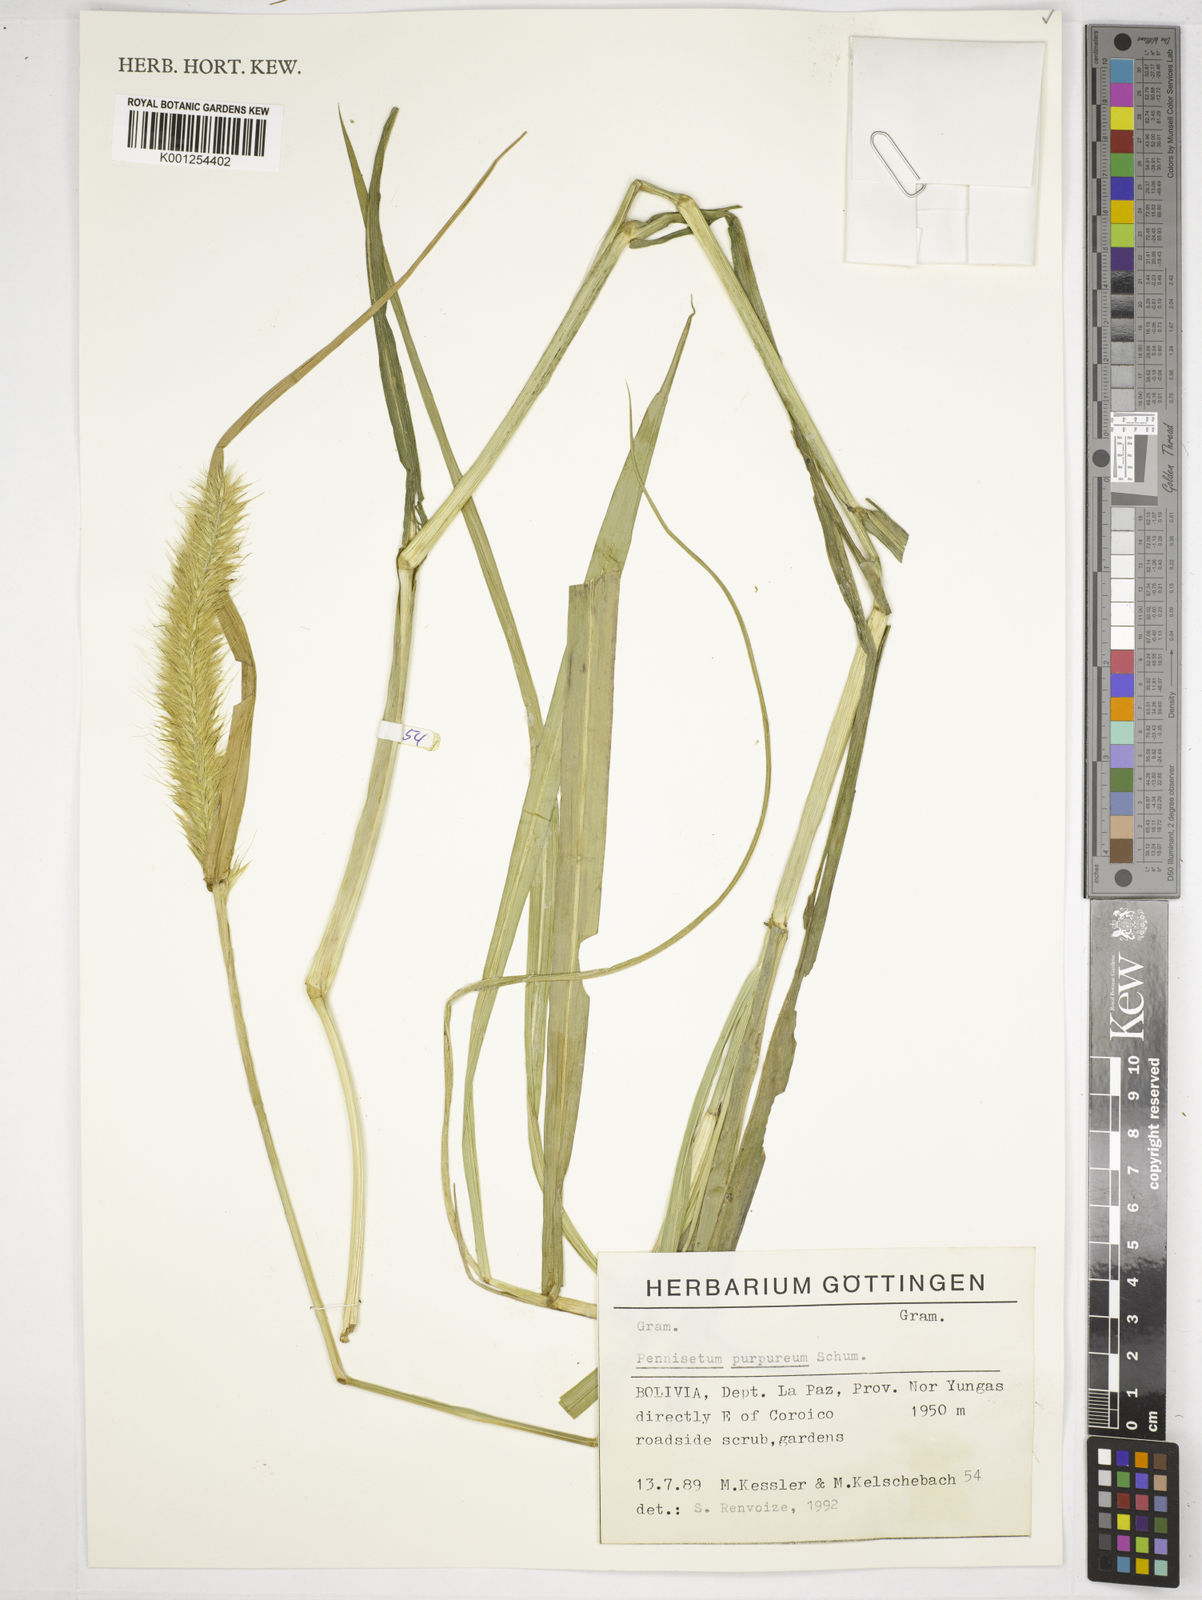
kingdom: Plantae
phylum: Tracheophyta
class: Liliopsida
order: Poales
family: Poaceae
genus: Cenchrus
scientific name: Cenchrus purpureus
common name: Elephant grass
